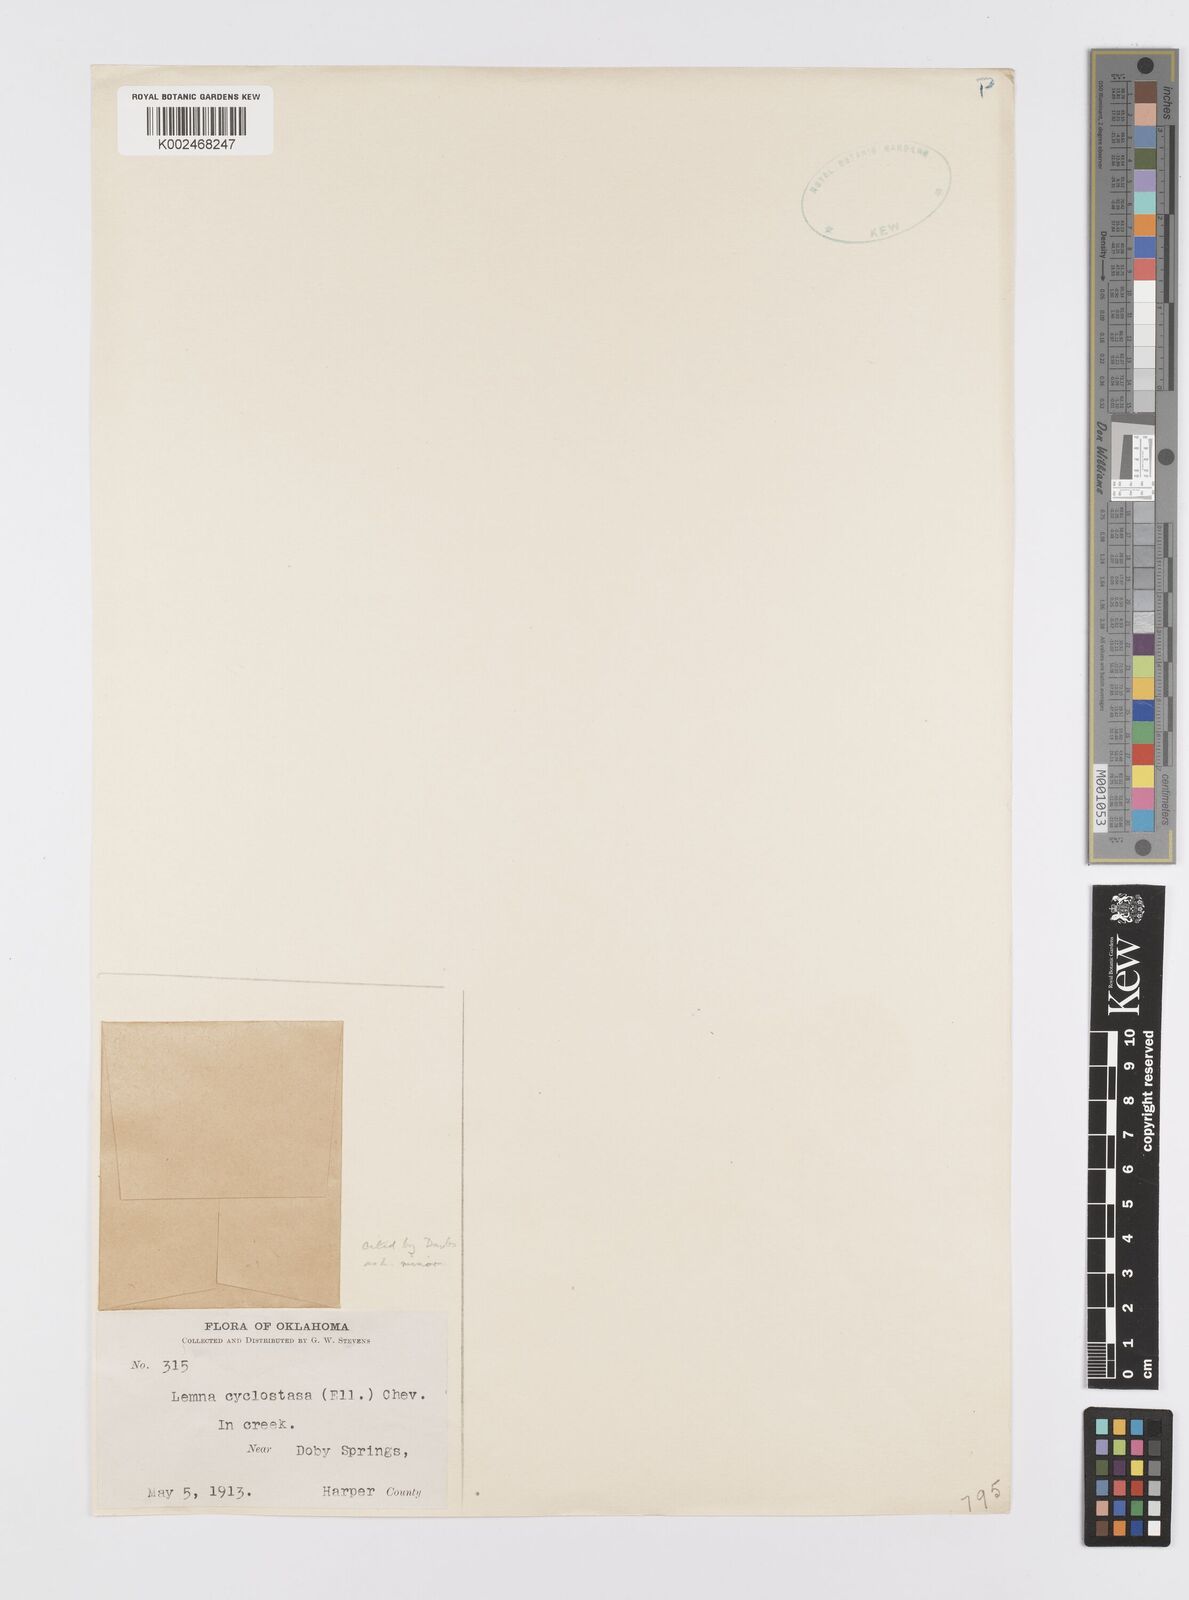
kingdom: Plantae
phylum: Tracheophyta
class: Liliopsida
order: Alismatales
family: Araceae
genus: Lemna
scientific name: Lemna valdiviana
